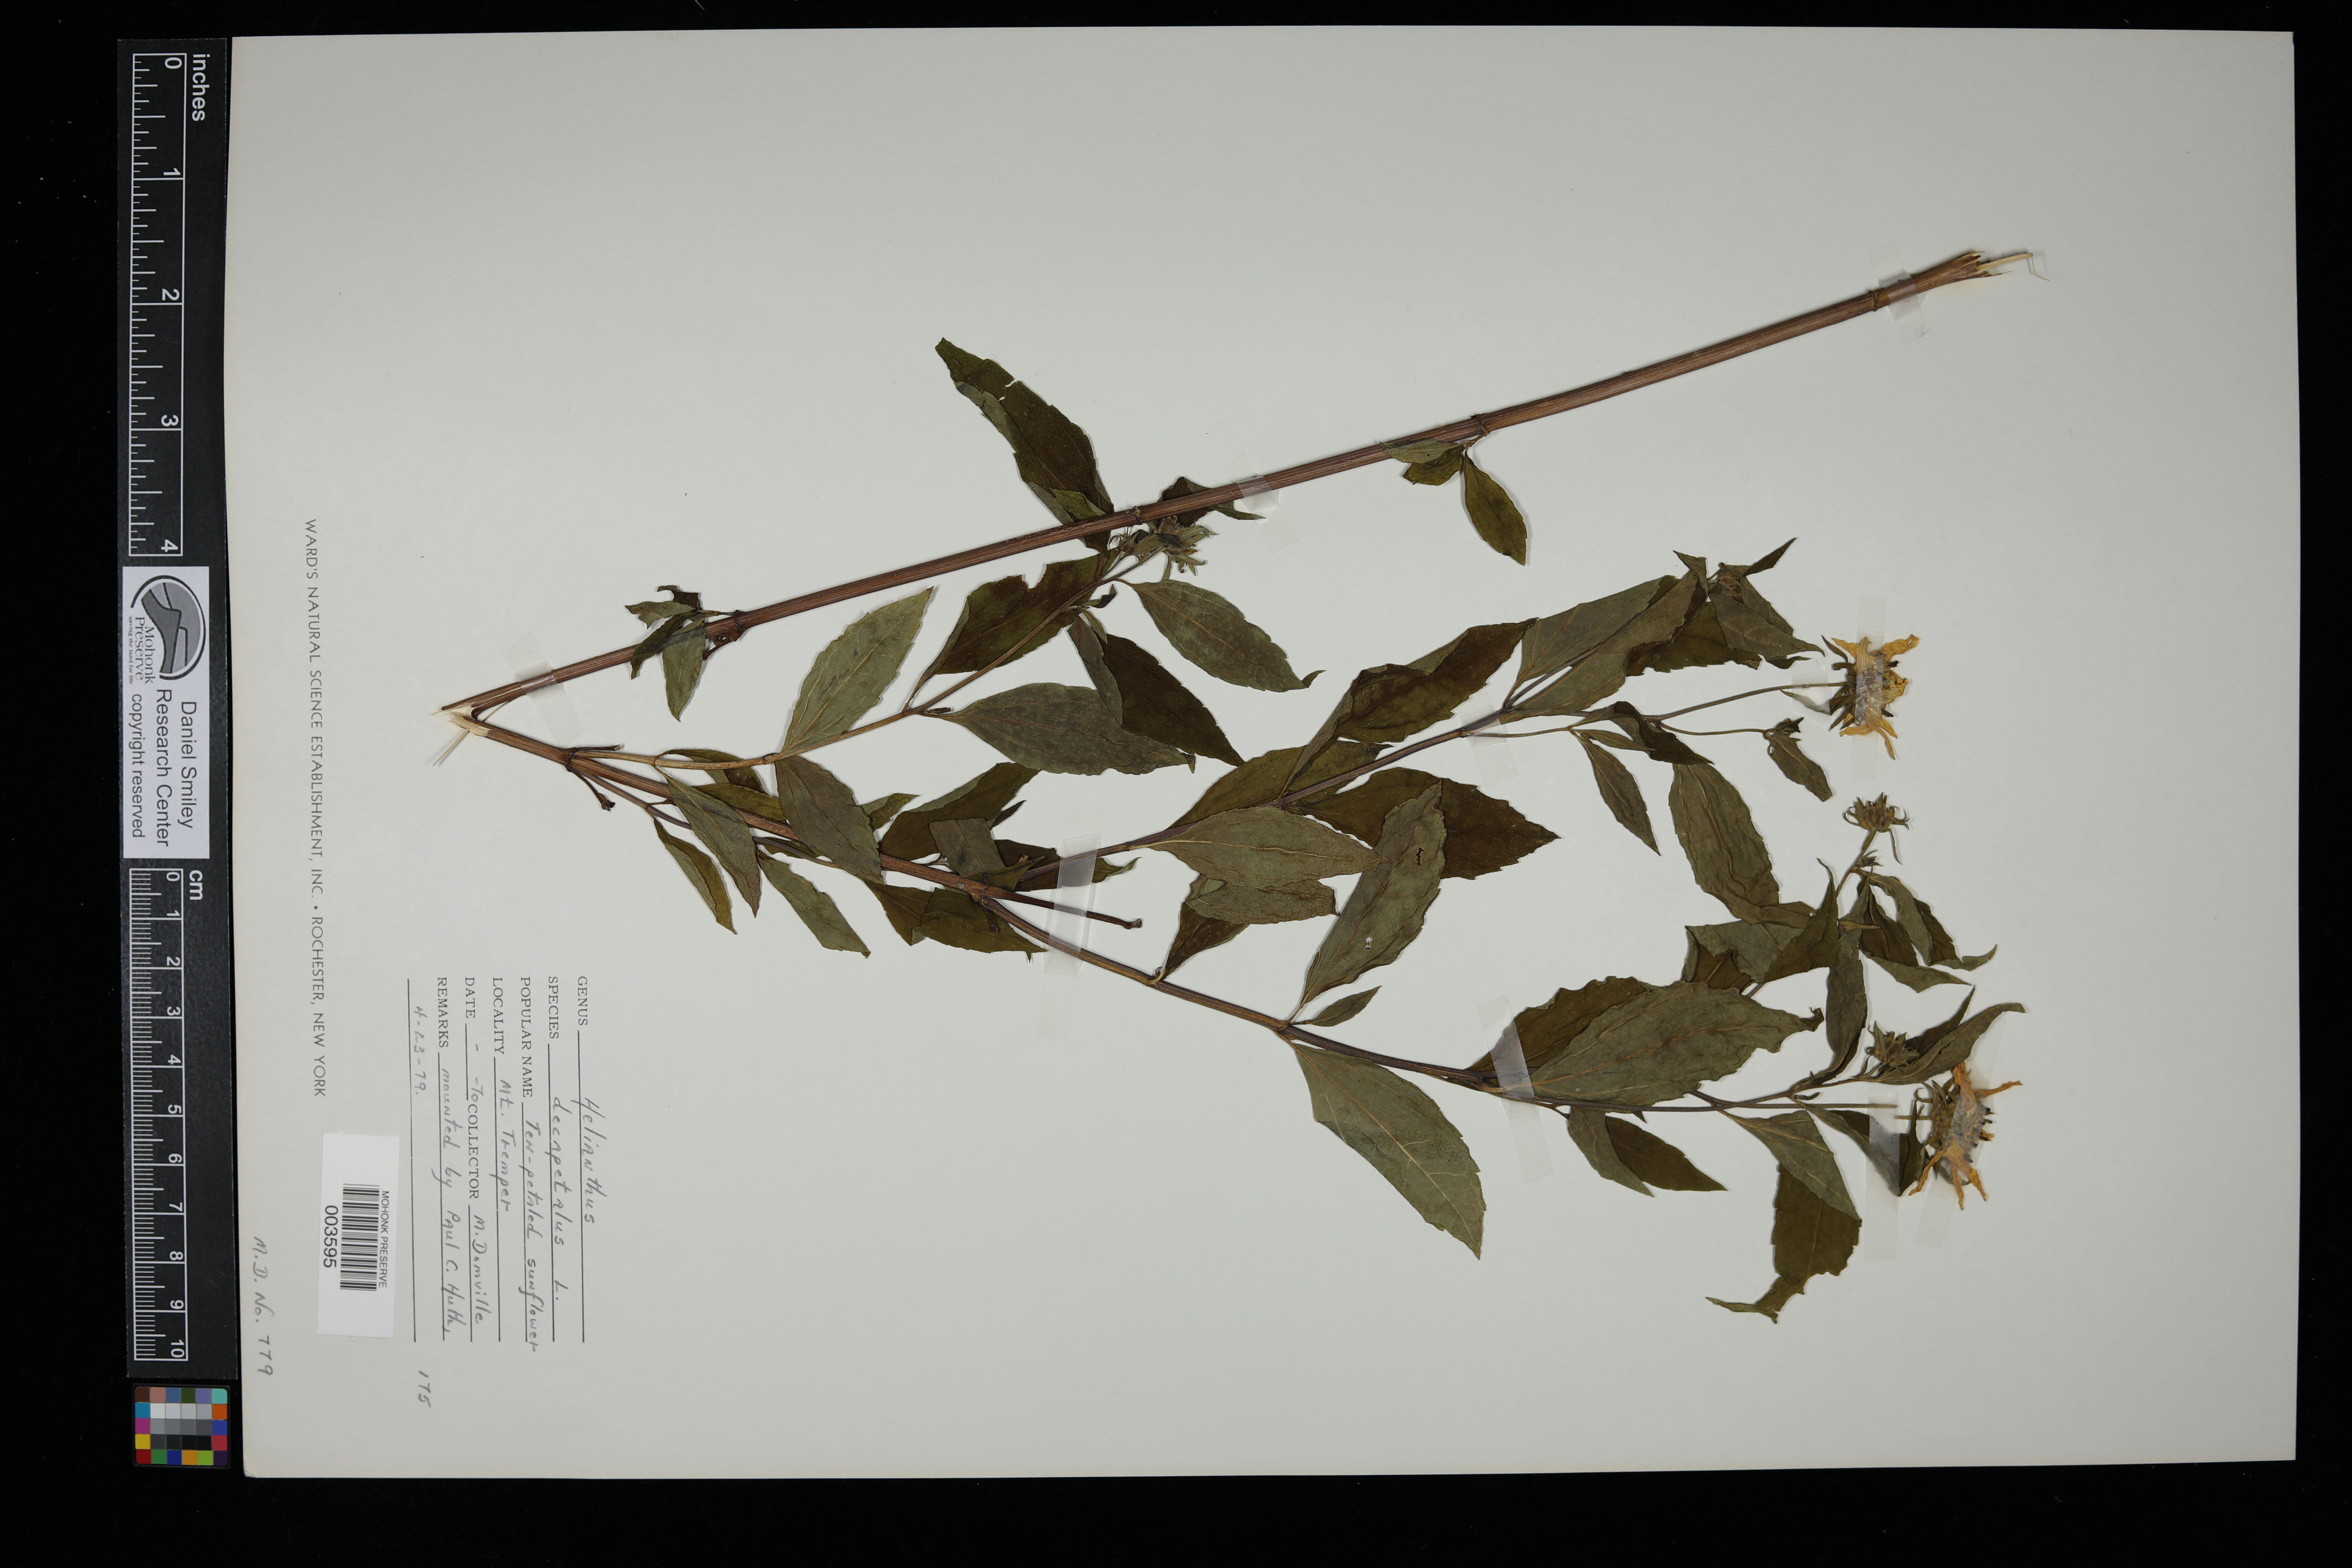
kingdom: Plantae
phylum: Tracheophyta
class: Magnoliopsida
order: Asterales
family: Asteraceae
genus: Helianthus
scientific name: Helianthus decapetalus
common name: Thin-leaved sunflower
